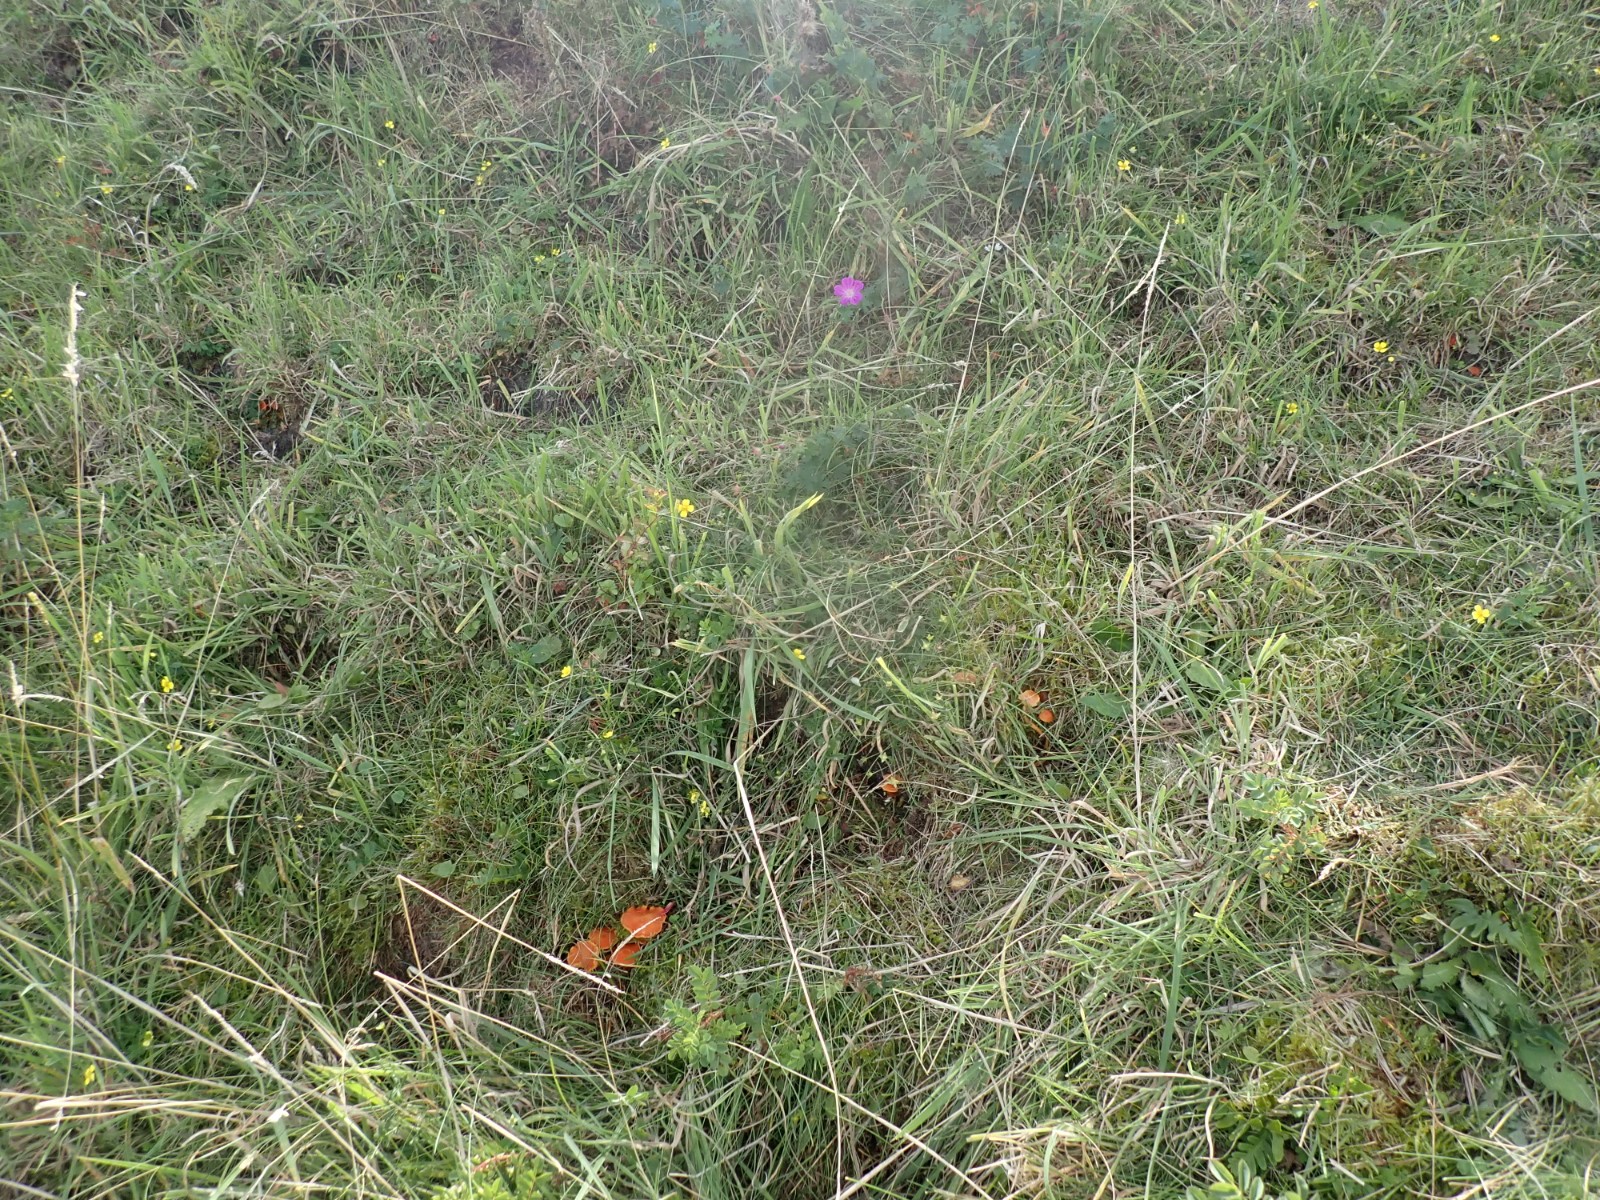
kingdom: Fungi
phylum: Basidiomycota
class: Agaricomycetes
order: Agaricales
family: Hygrophoraceae
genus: Hygrocybe
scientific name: Hygrocybe reidii
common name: honning-vokshat
